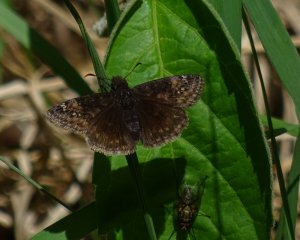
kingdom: Animalia
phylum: Arthropoda
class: Insecta
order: Lepidoptera
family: Hesperiidae
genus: Gesta
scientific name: Gesta
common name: Wild Indigo Duskywing
